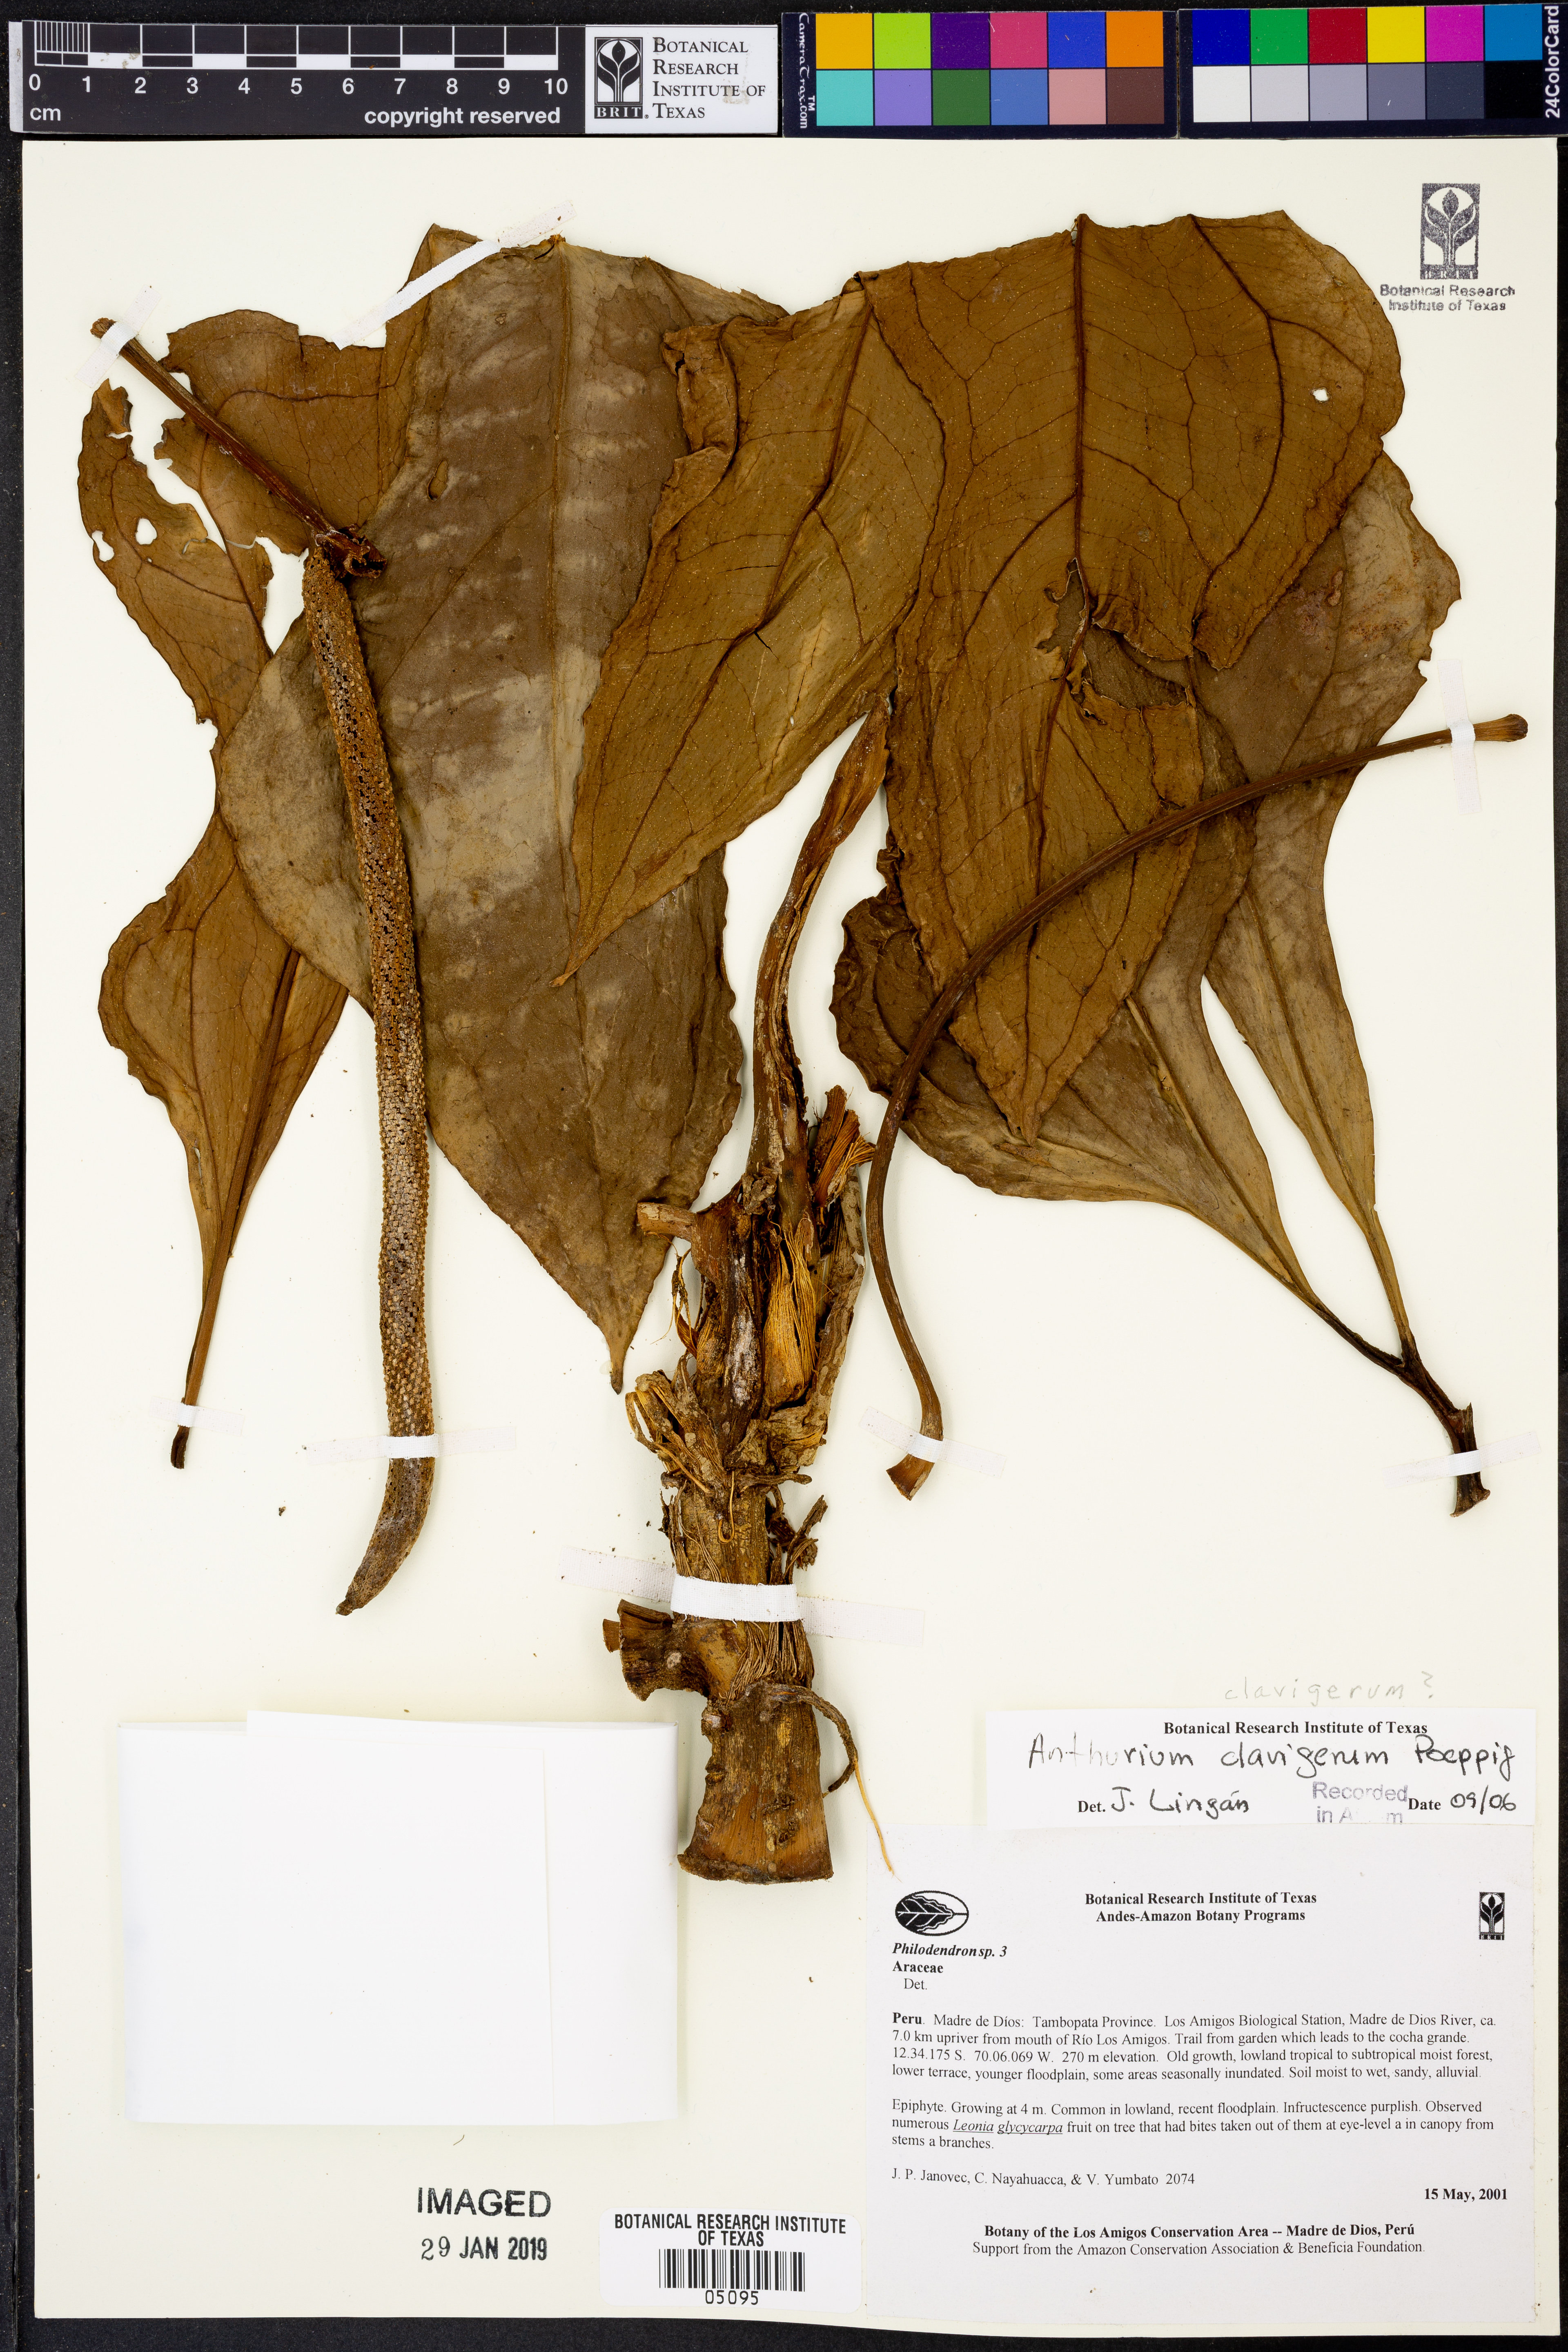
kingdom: Plantae
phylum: Tracheophyta
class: Liliopsida
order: Alismatales
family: Araceae
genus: Anthurium
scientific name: Anthurium clavigerum
